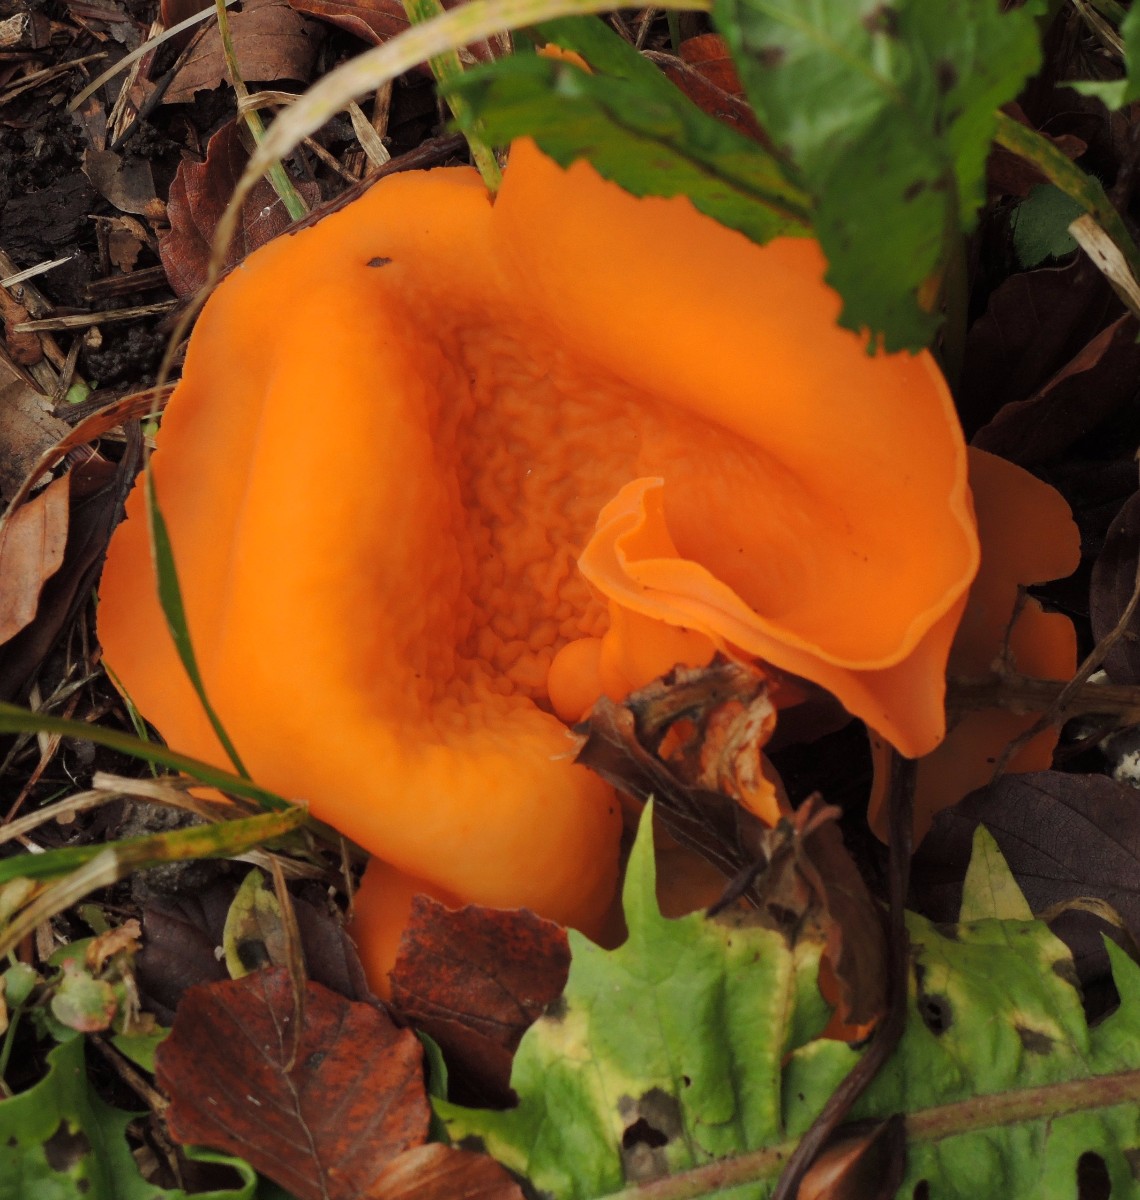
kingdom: Fungi
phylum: Ascomycota
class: Pezizomycetes
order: Pezizales
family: Pyronemataceae
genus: Aleuria
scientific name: Aleuria aurantia
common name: almindelig orangebæger
